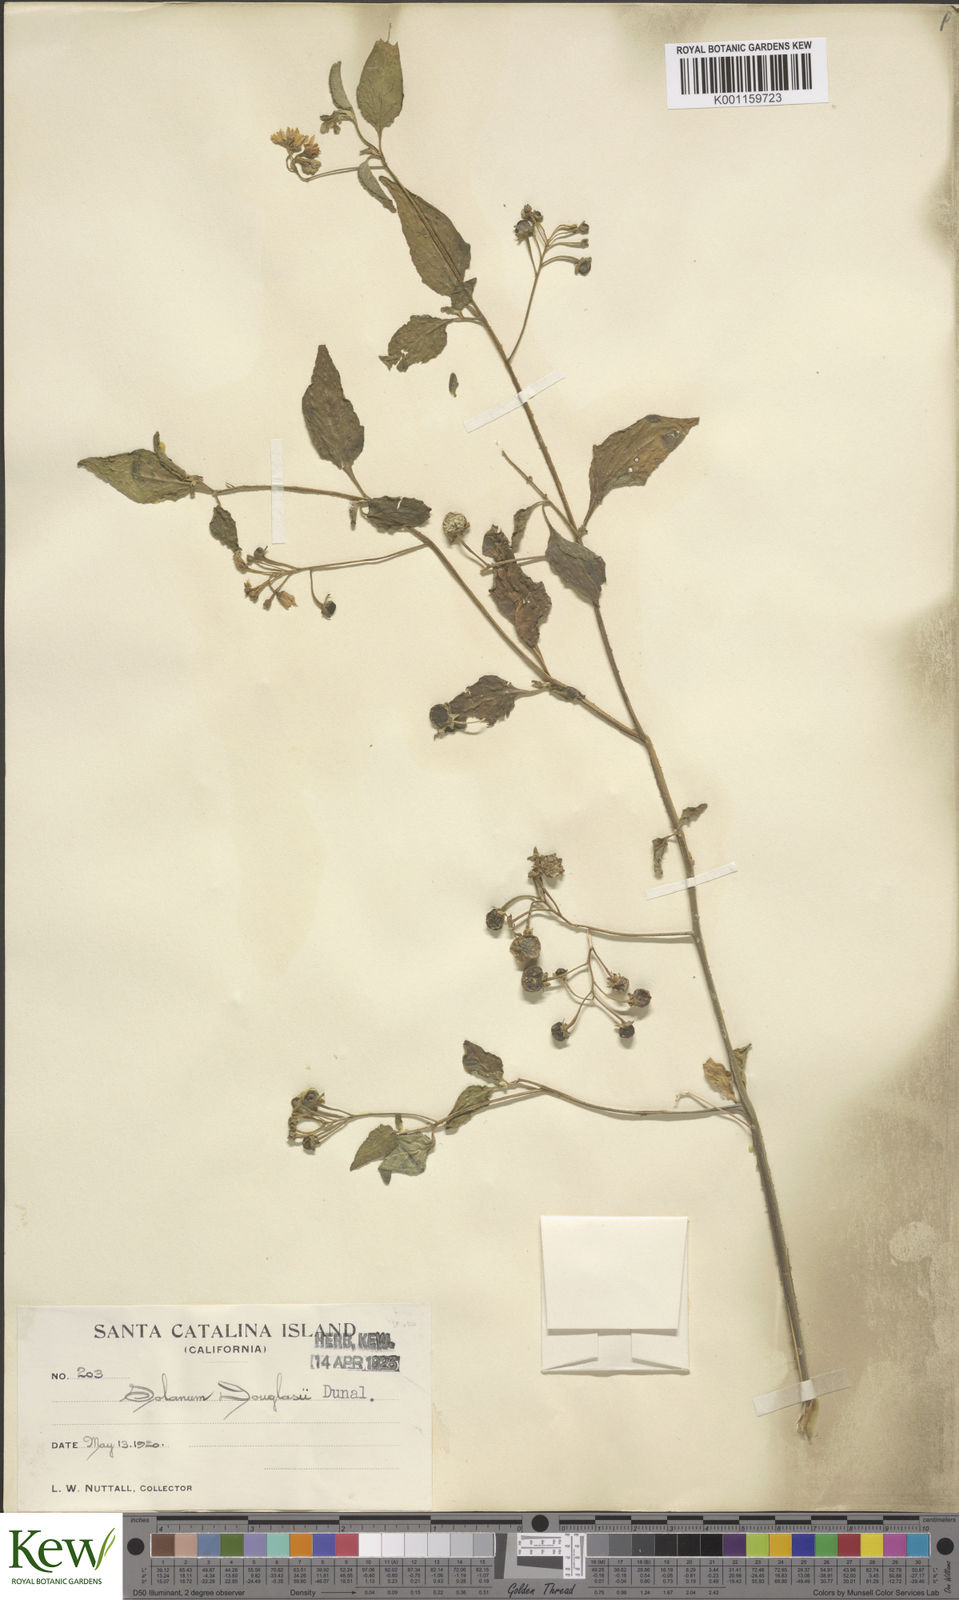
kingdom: Plantae
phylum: Tracheophyta
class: Magnoliopsida
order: Solanales
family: Solanaceae
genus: Solanum
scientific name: Solanum douglasii
